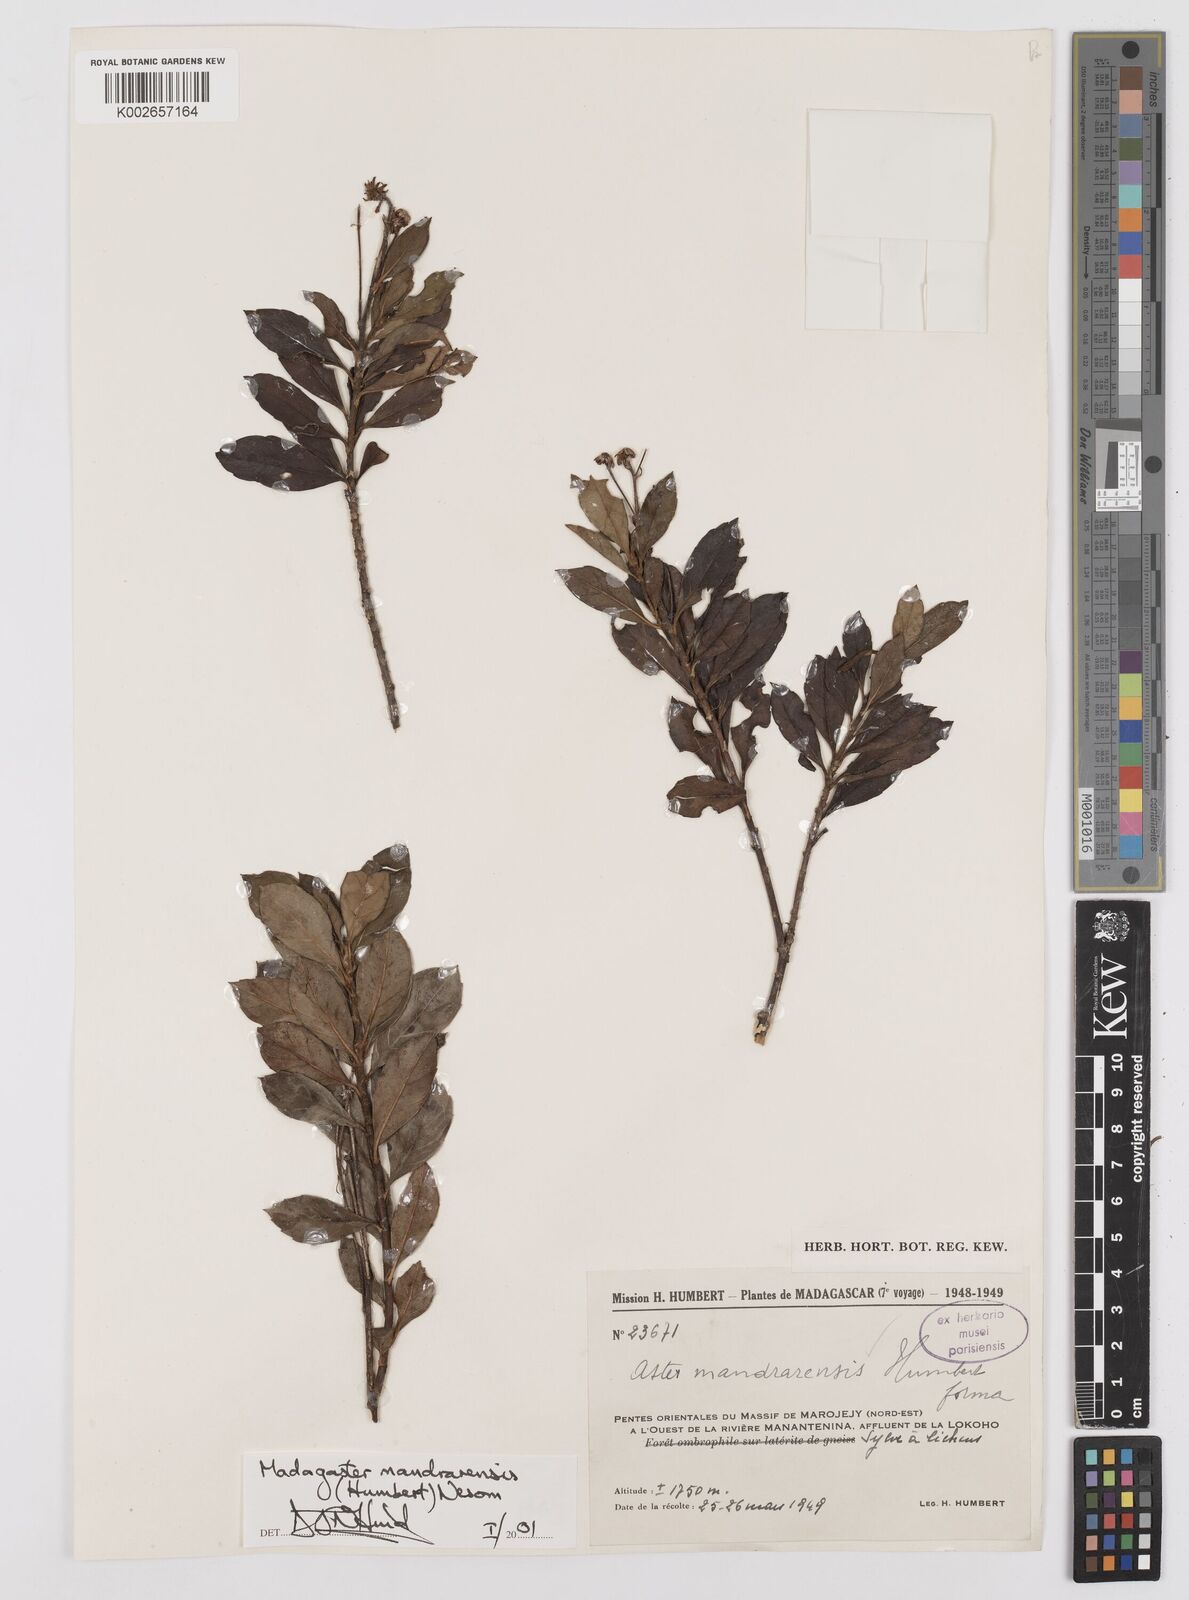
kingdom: Plantae
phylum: Tracheophyta
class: Magnoliopsida
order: Asterales
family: Asteraceae
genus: Madagaster
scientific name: Madagaster mandrarensis
